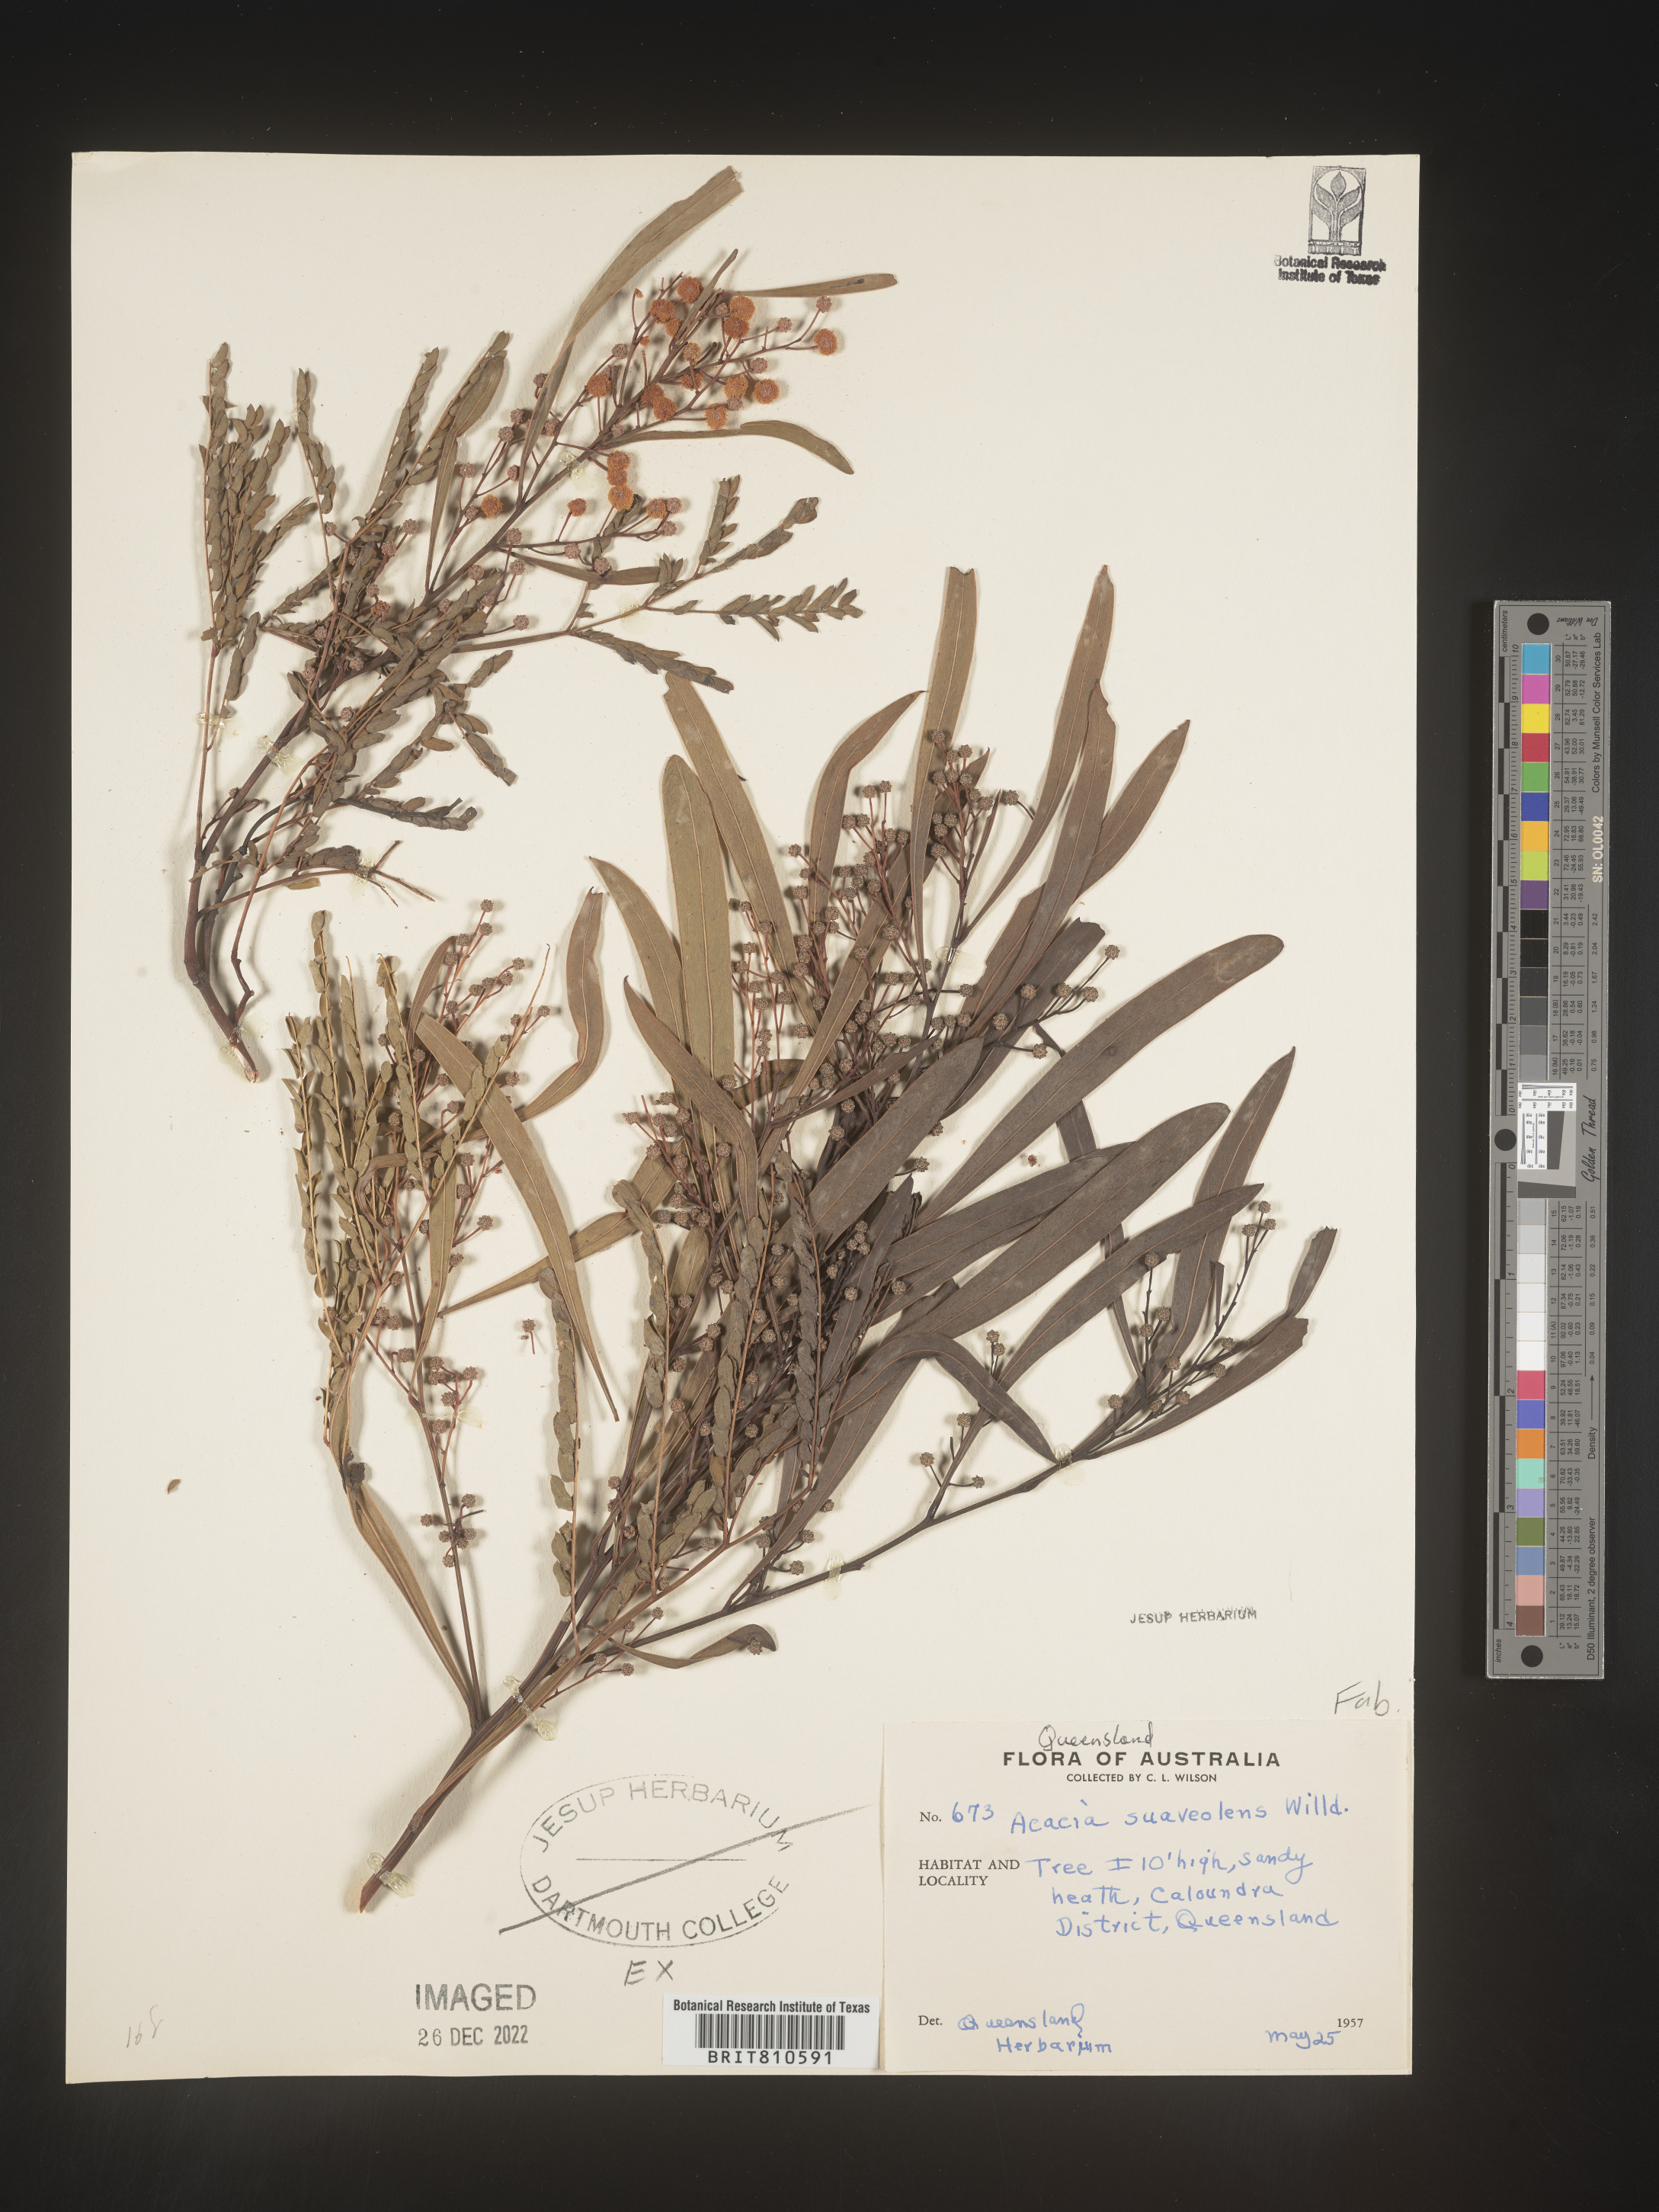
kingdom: Plantae
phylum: Tracheophyta
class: Magnoliopsida
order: Fabales
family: Fabaceae
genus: Acacia
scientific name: Acacia
